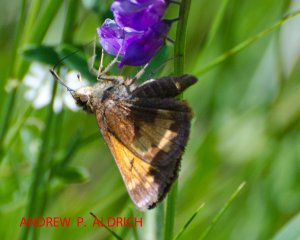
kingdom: Animalia
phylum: Arthropoda
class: Insecta
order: Lepidoptera
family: Hesperiidae
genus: Lon
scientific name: Lon hobomok
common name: Hobomok Skipper
